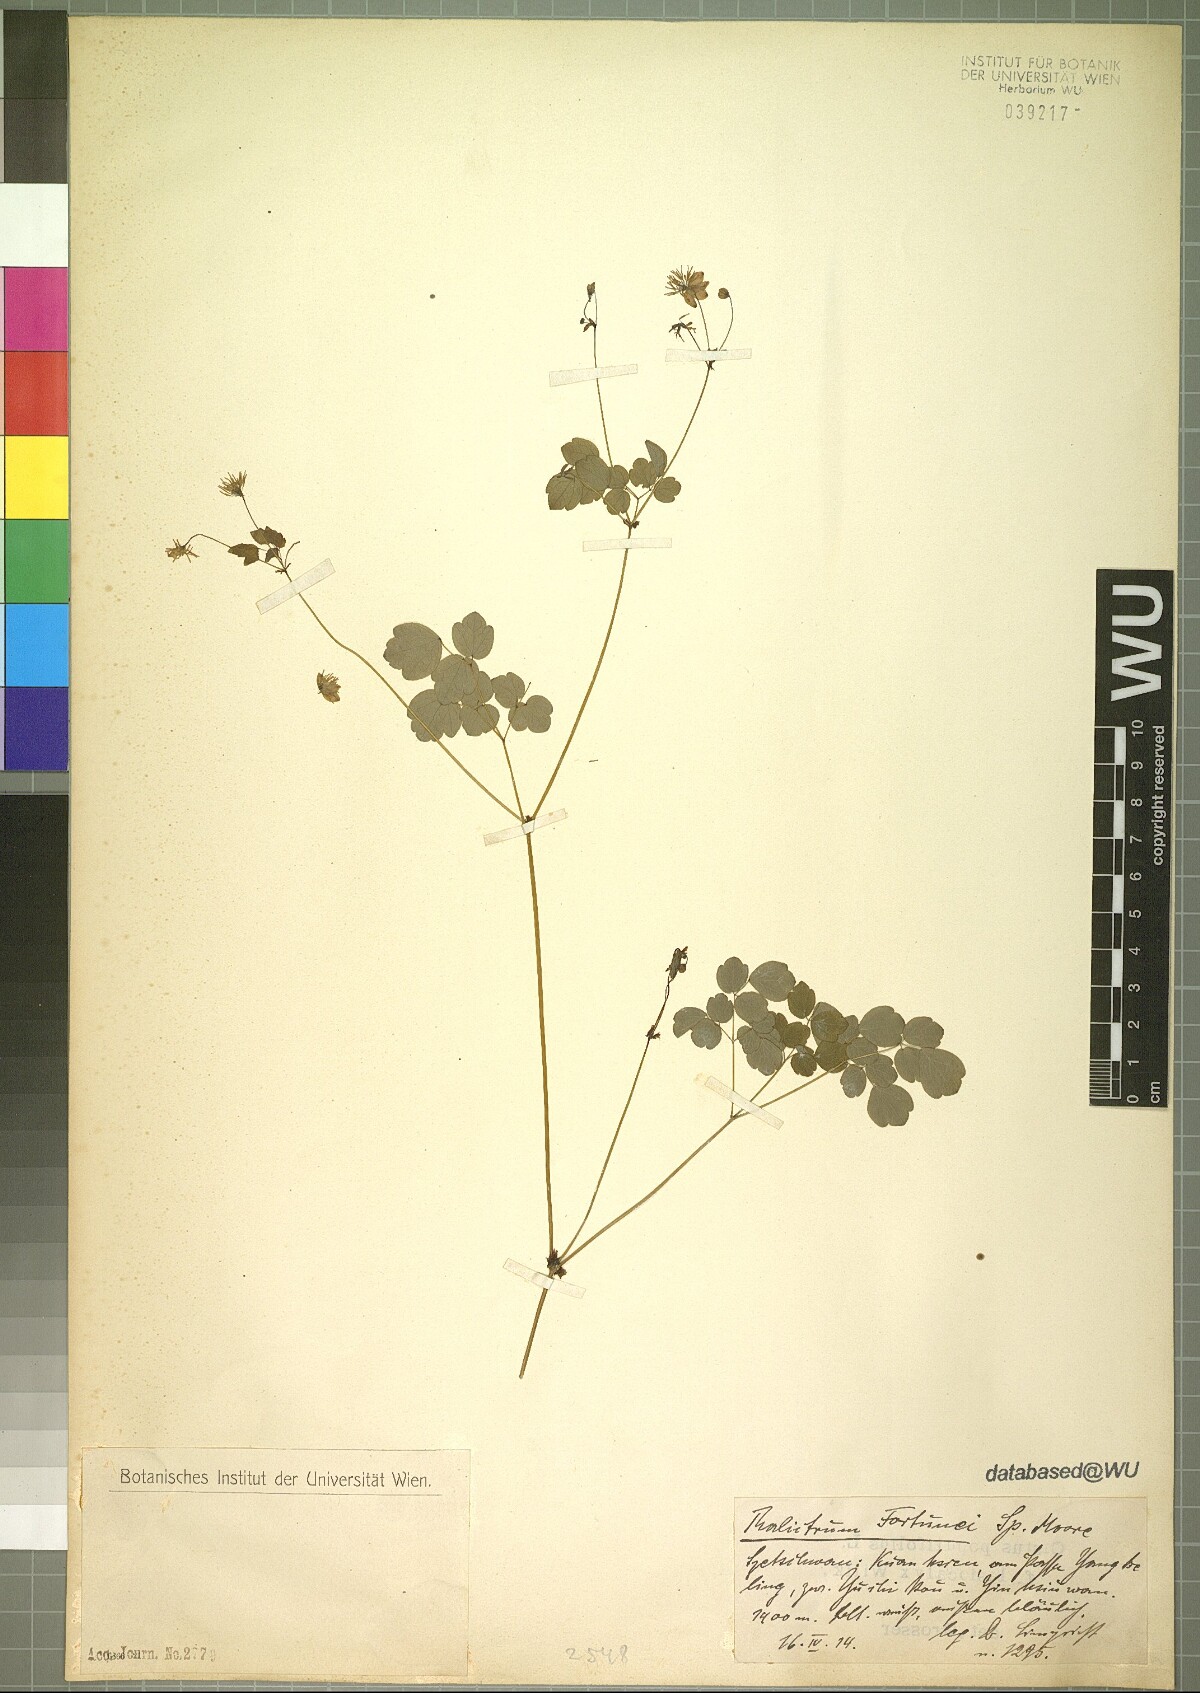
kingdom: Plantae
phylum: Tracheophyta
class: Magnoliopsida
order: Ranunculales
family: Ranunculaceae
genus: Thalictrum
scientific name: Thalictrum fortunei
